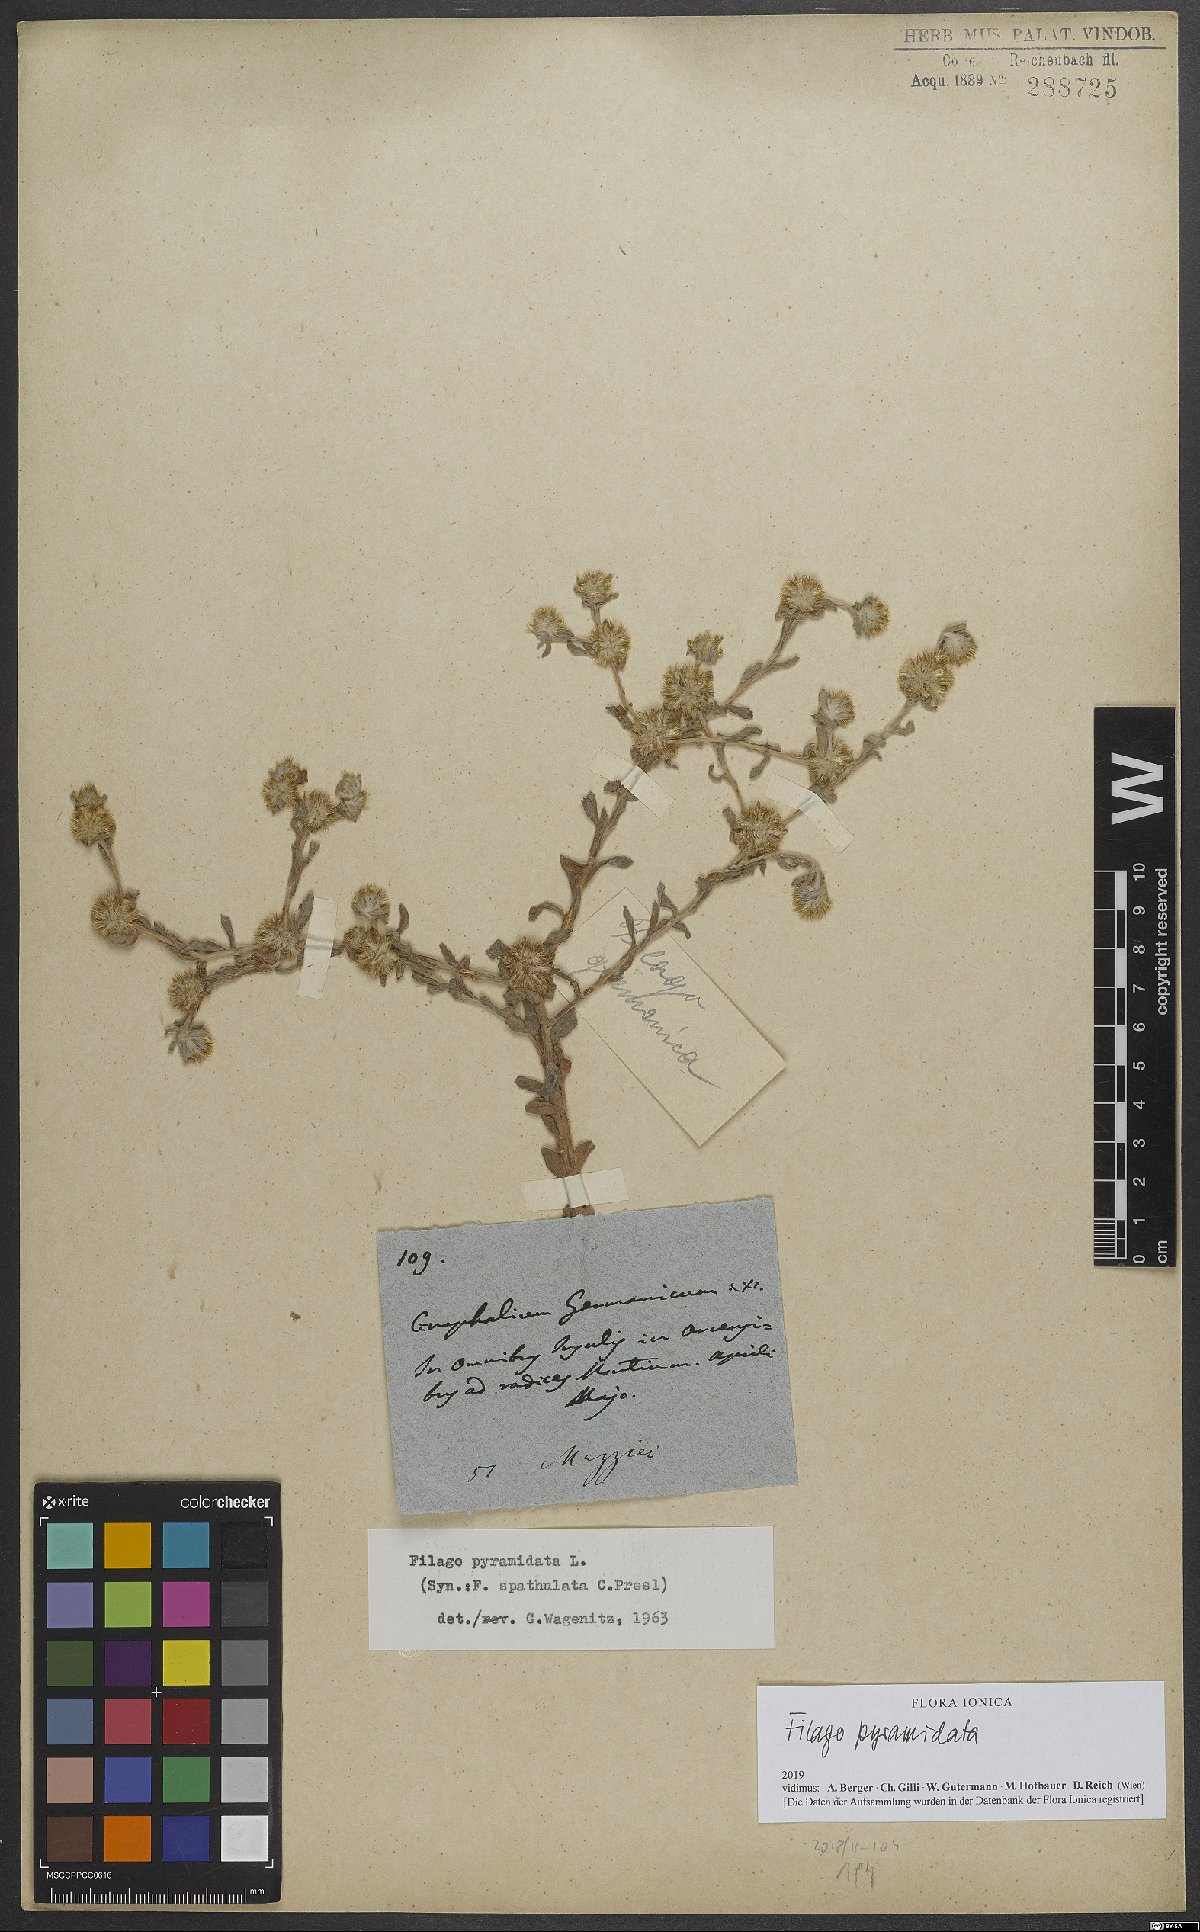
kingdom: Plantae
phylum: Tracheophyta
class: Magnoliopsida
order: Asterales
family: Asteraceae
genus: Filago
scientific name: Filago pyramidata
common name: Broad-leaved cudweed
